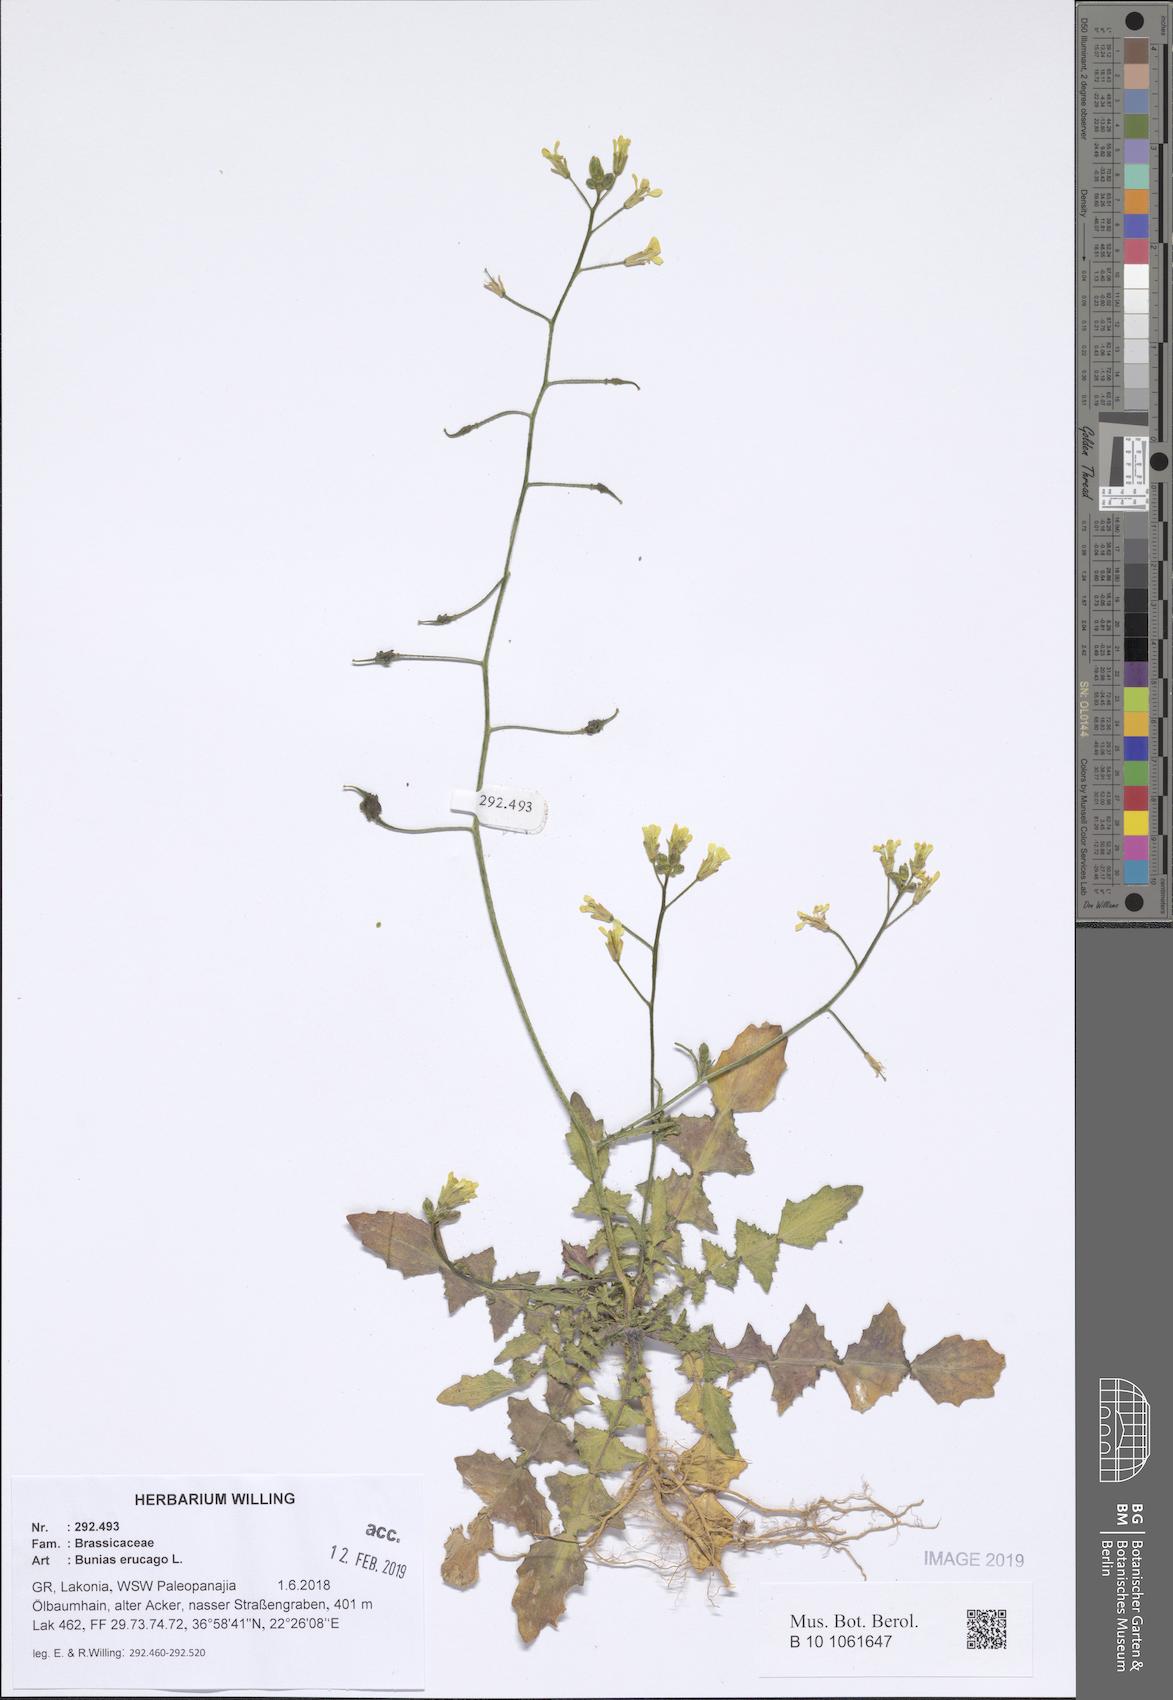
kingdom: Plantae
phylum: Tracheophyta
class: Magnoliopsida
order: Brassicales
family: Brassicaceae
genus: Bunias
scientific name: Bunias erucago
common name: Southern warty-cabbage
